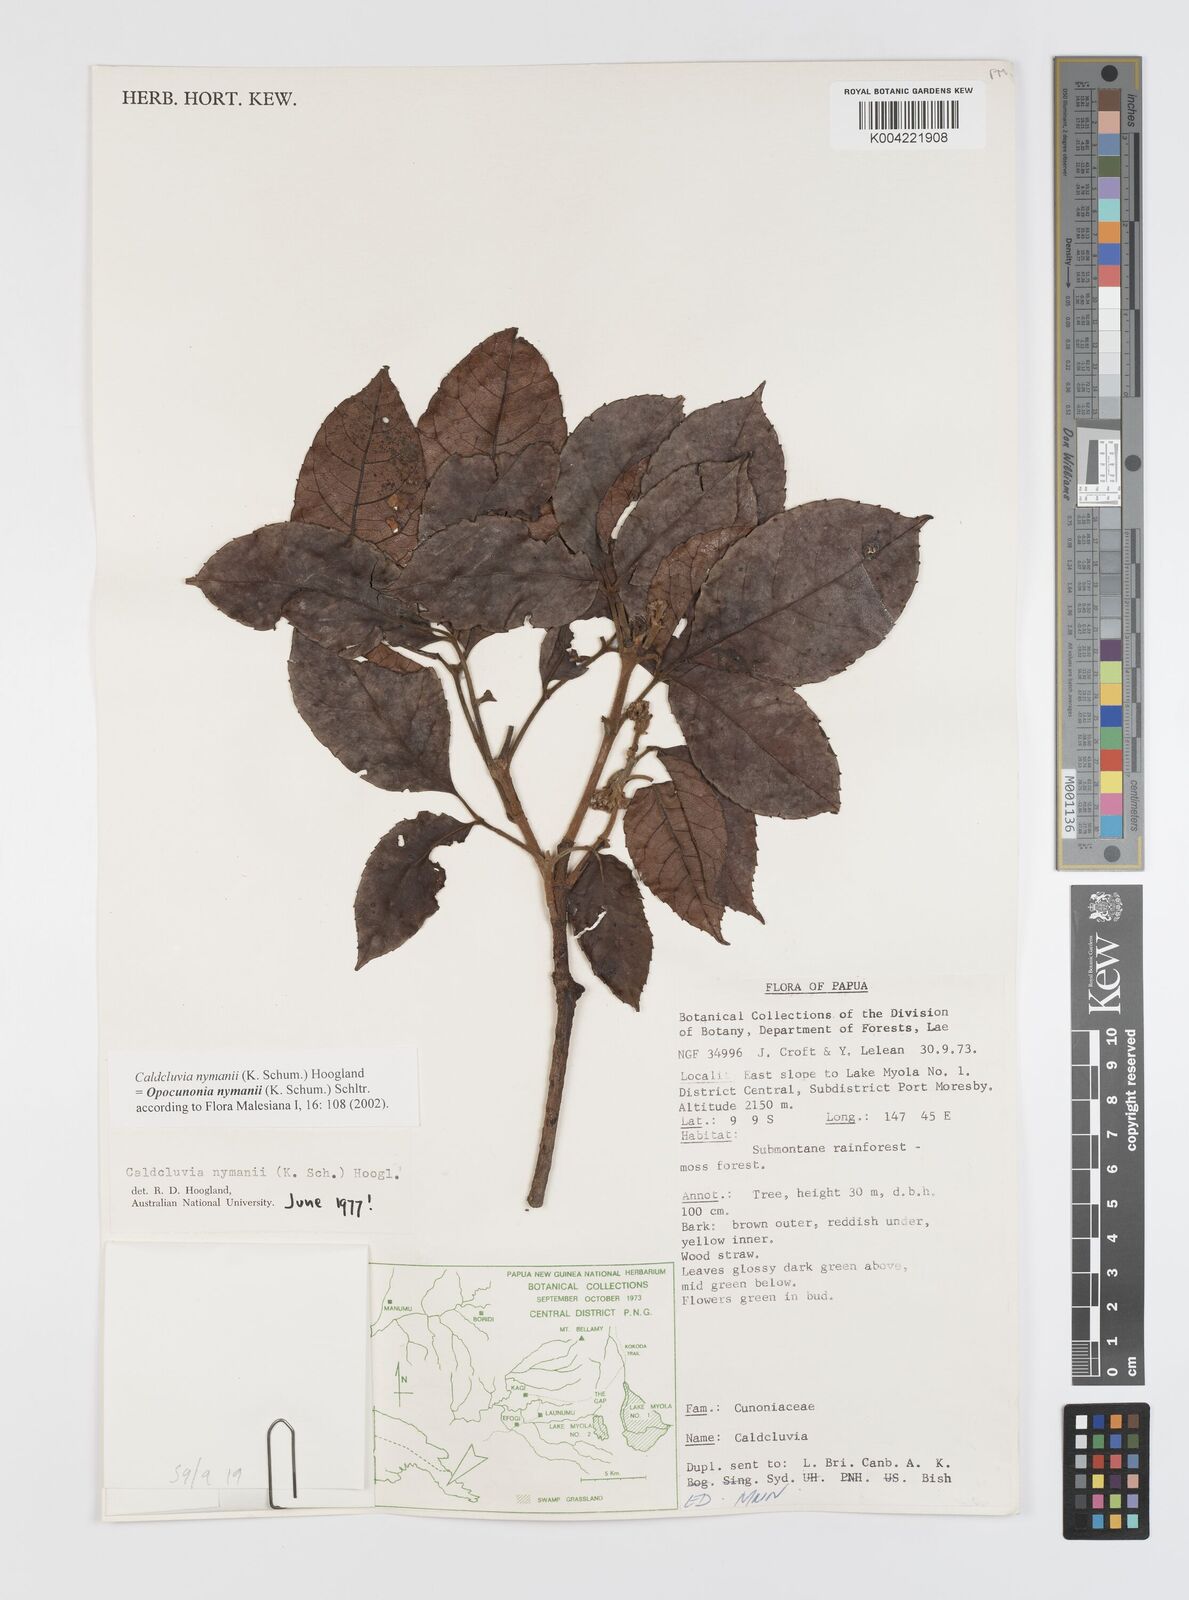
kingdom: Plantae
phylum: Tracheophyta
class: Magnoliopsida
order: Oxalidales
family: Cunoniaceae
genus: Opocunonia
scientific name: Opocunonia nymanii
